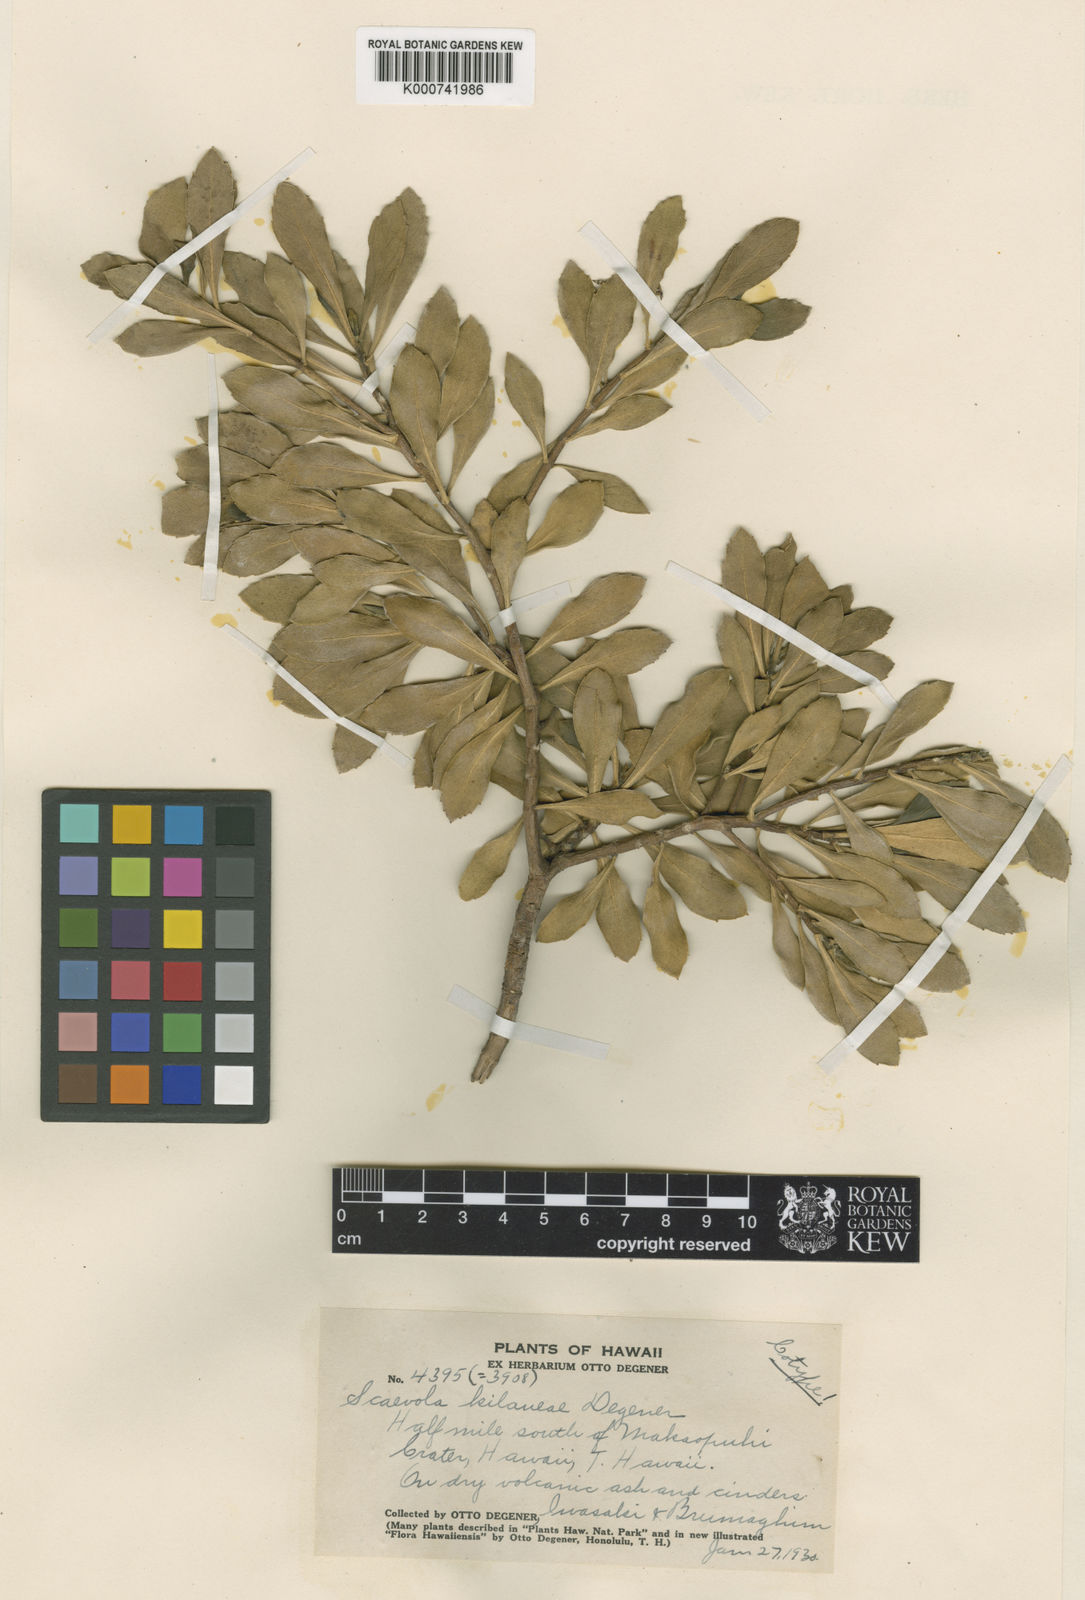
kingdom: Plantae
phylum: Tracheophyta
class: Magnoliopsida
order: Asterales
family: Goodeniaceae
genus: Scaevola
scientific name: Scaevola kilaueae
